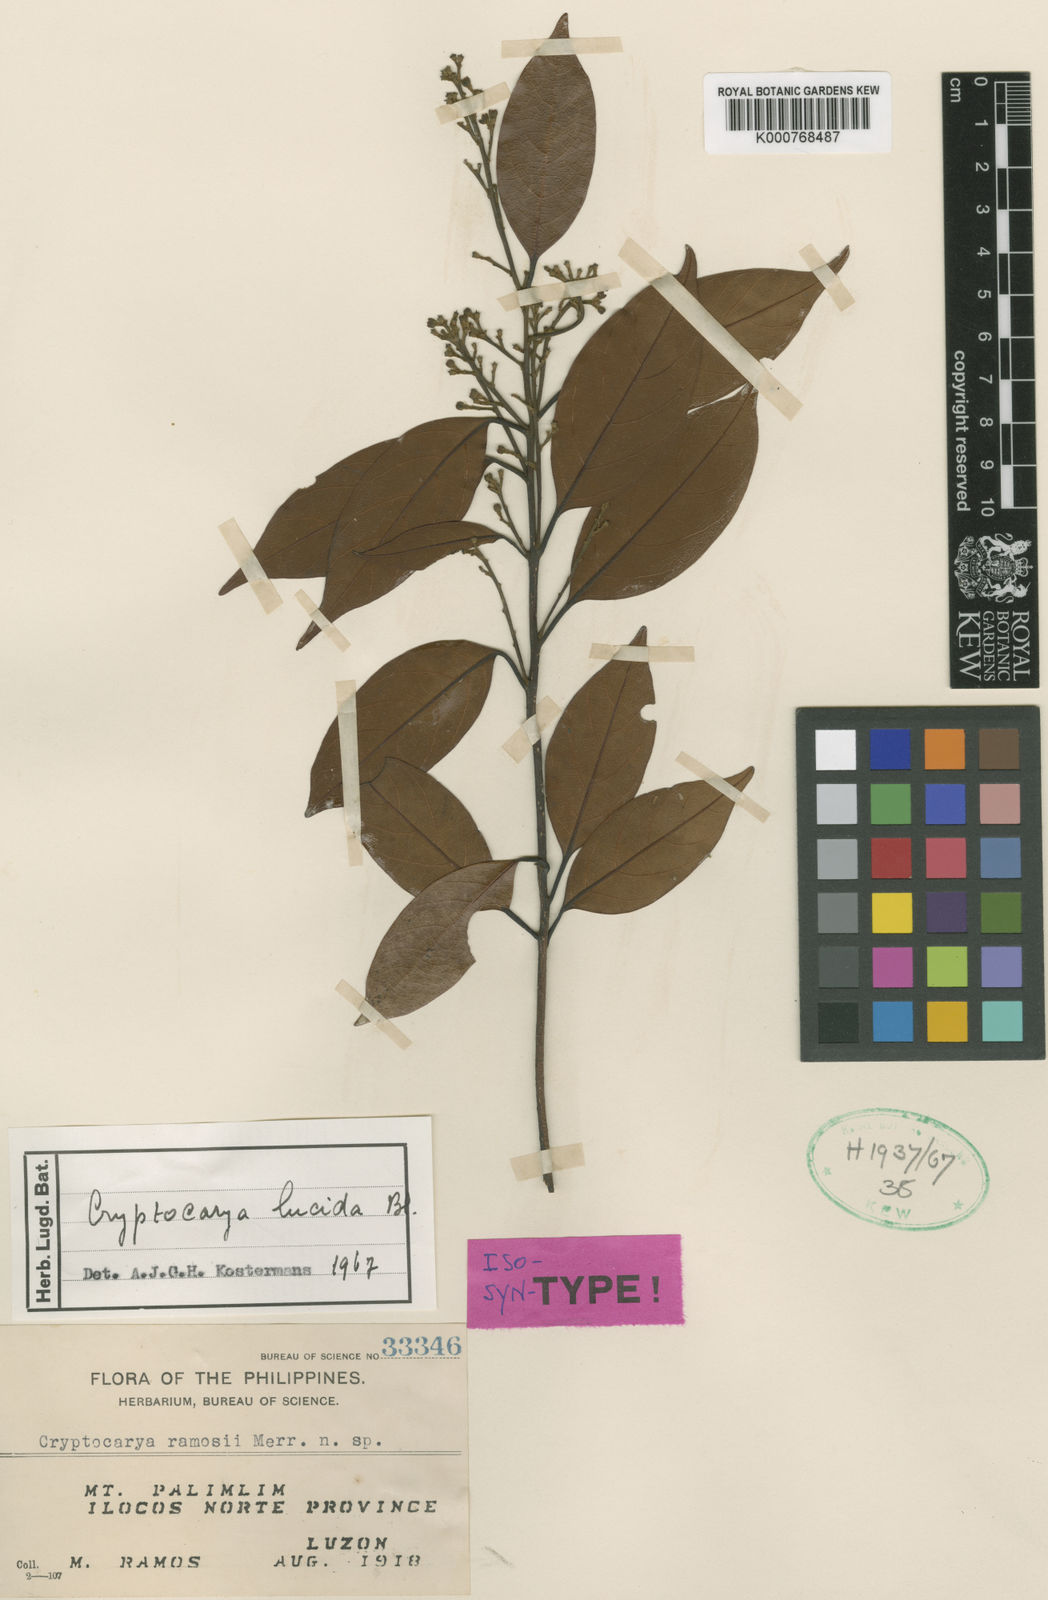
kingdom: Plantae
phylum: Tracheophyta
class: Magnoliopsida
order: Laurales
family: Lauraceae
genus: Cryptocarya
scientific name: Cryptocarya lucida
